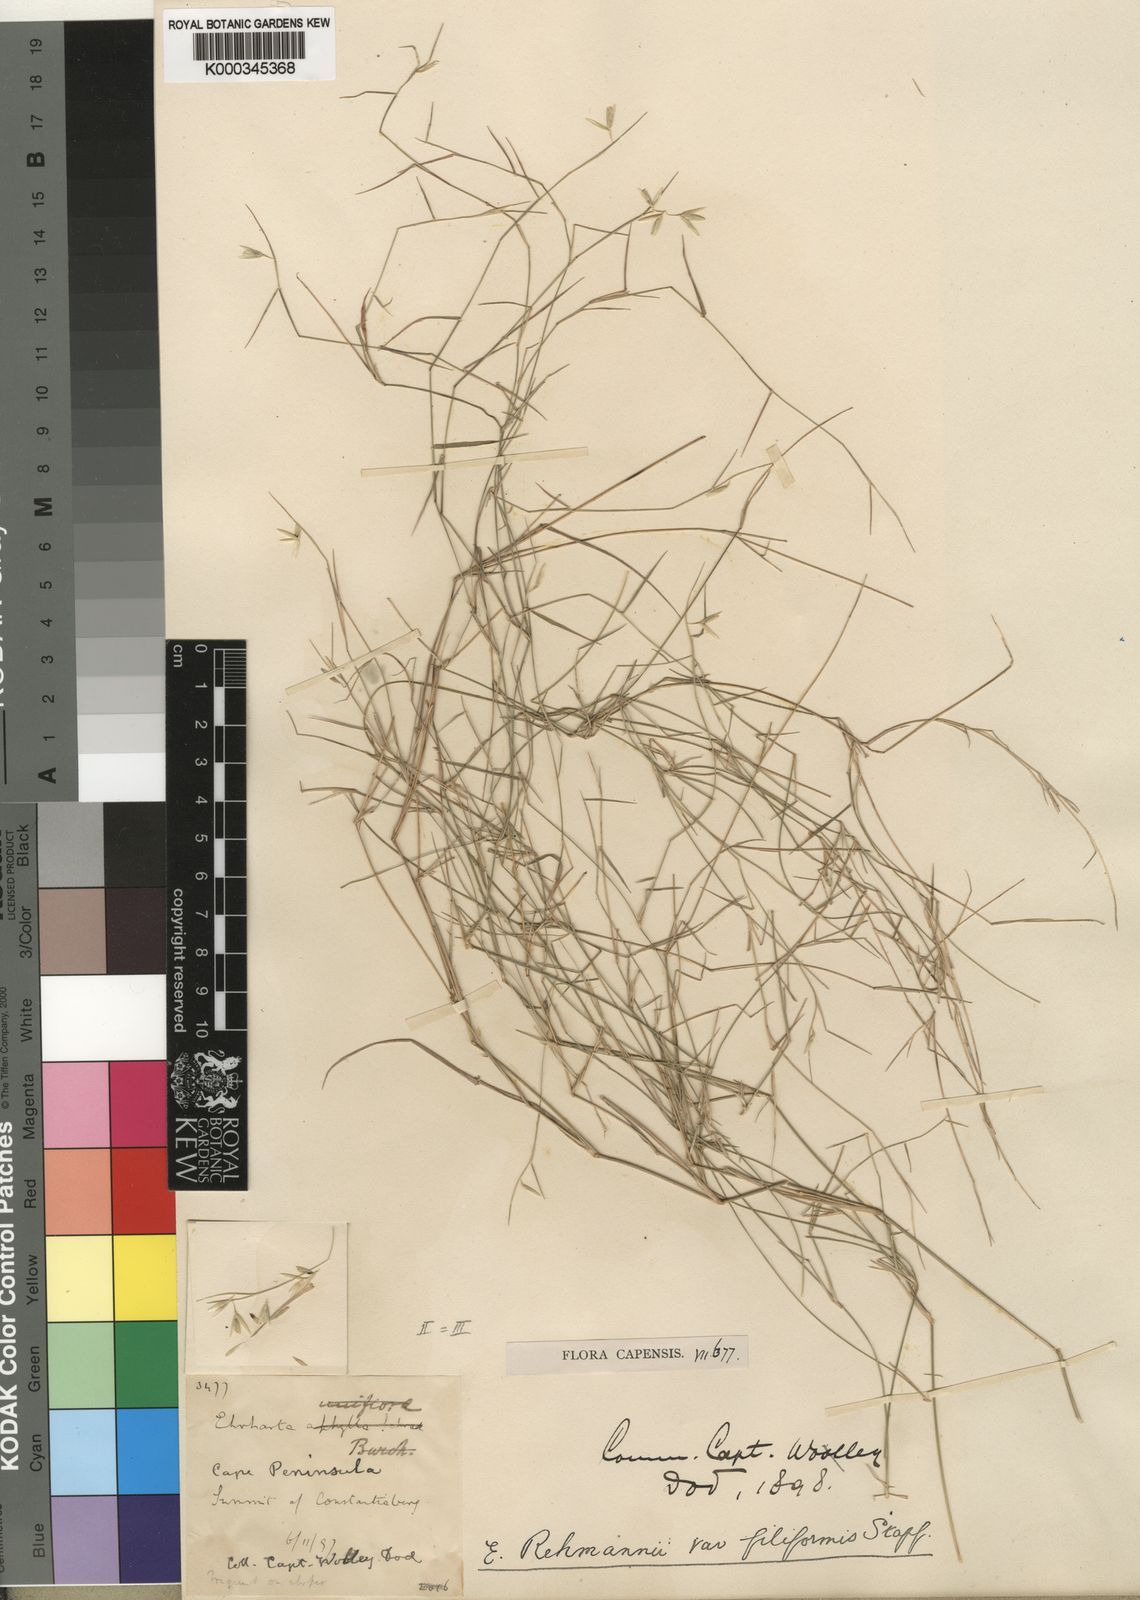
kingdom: Plantae
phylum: Tracheophyta
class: Liliopsida
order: Poales
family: Poaceae
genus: Ehrharta
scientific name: Ehrharta rehmannii
